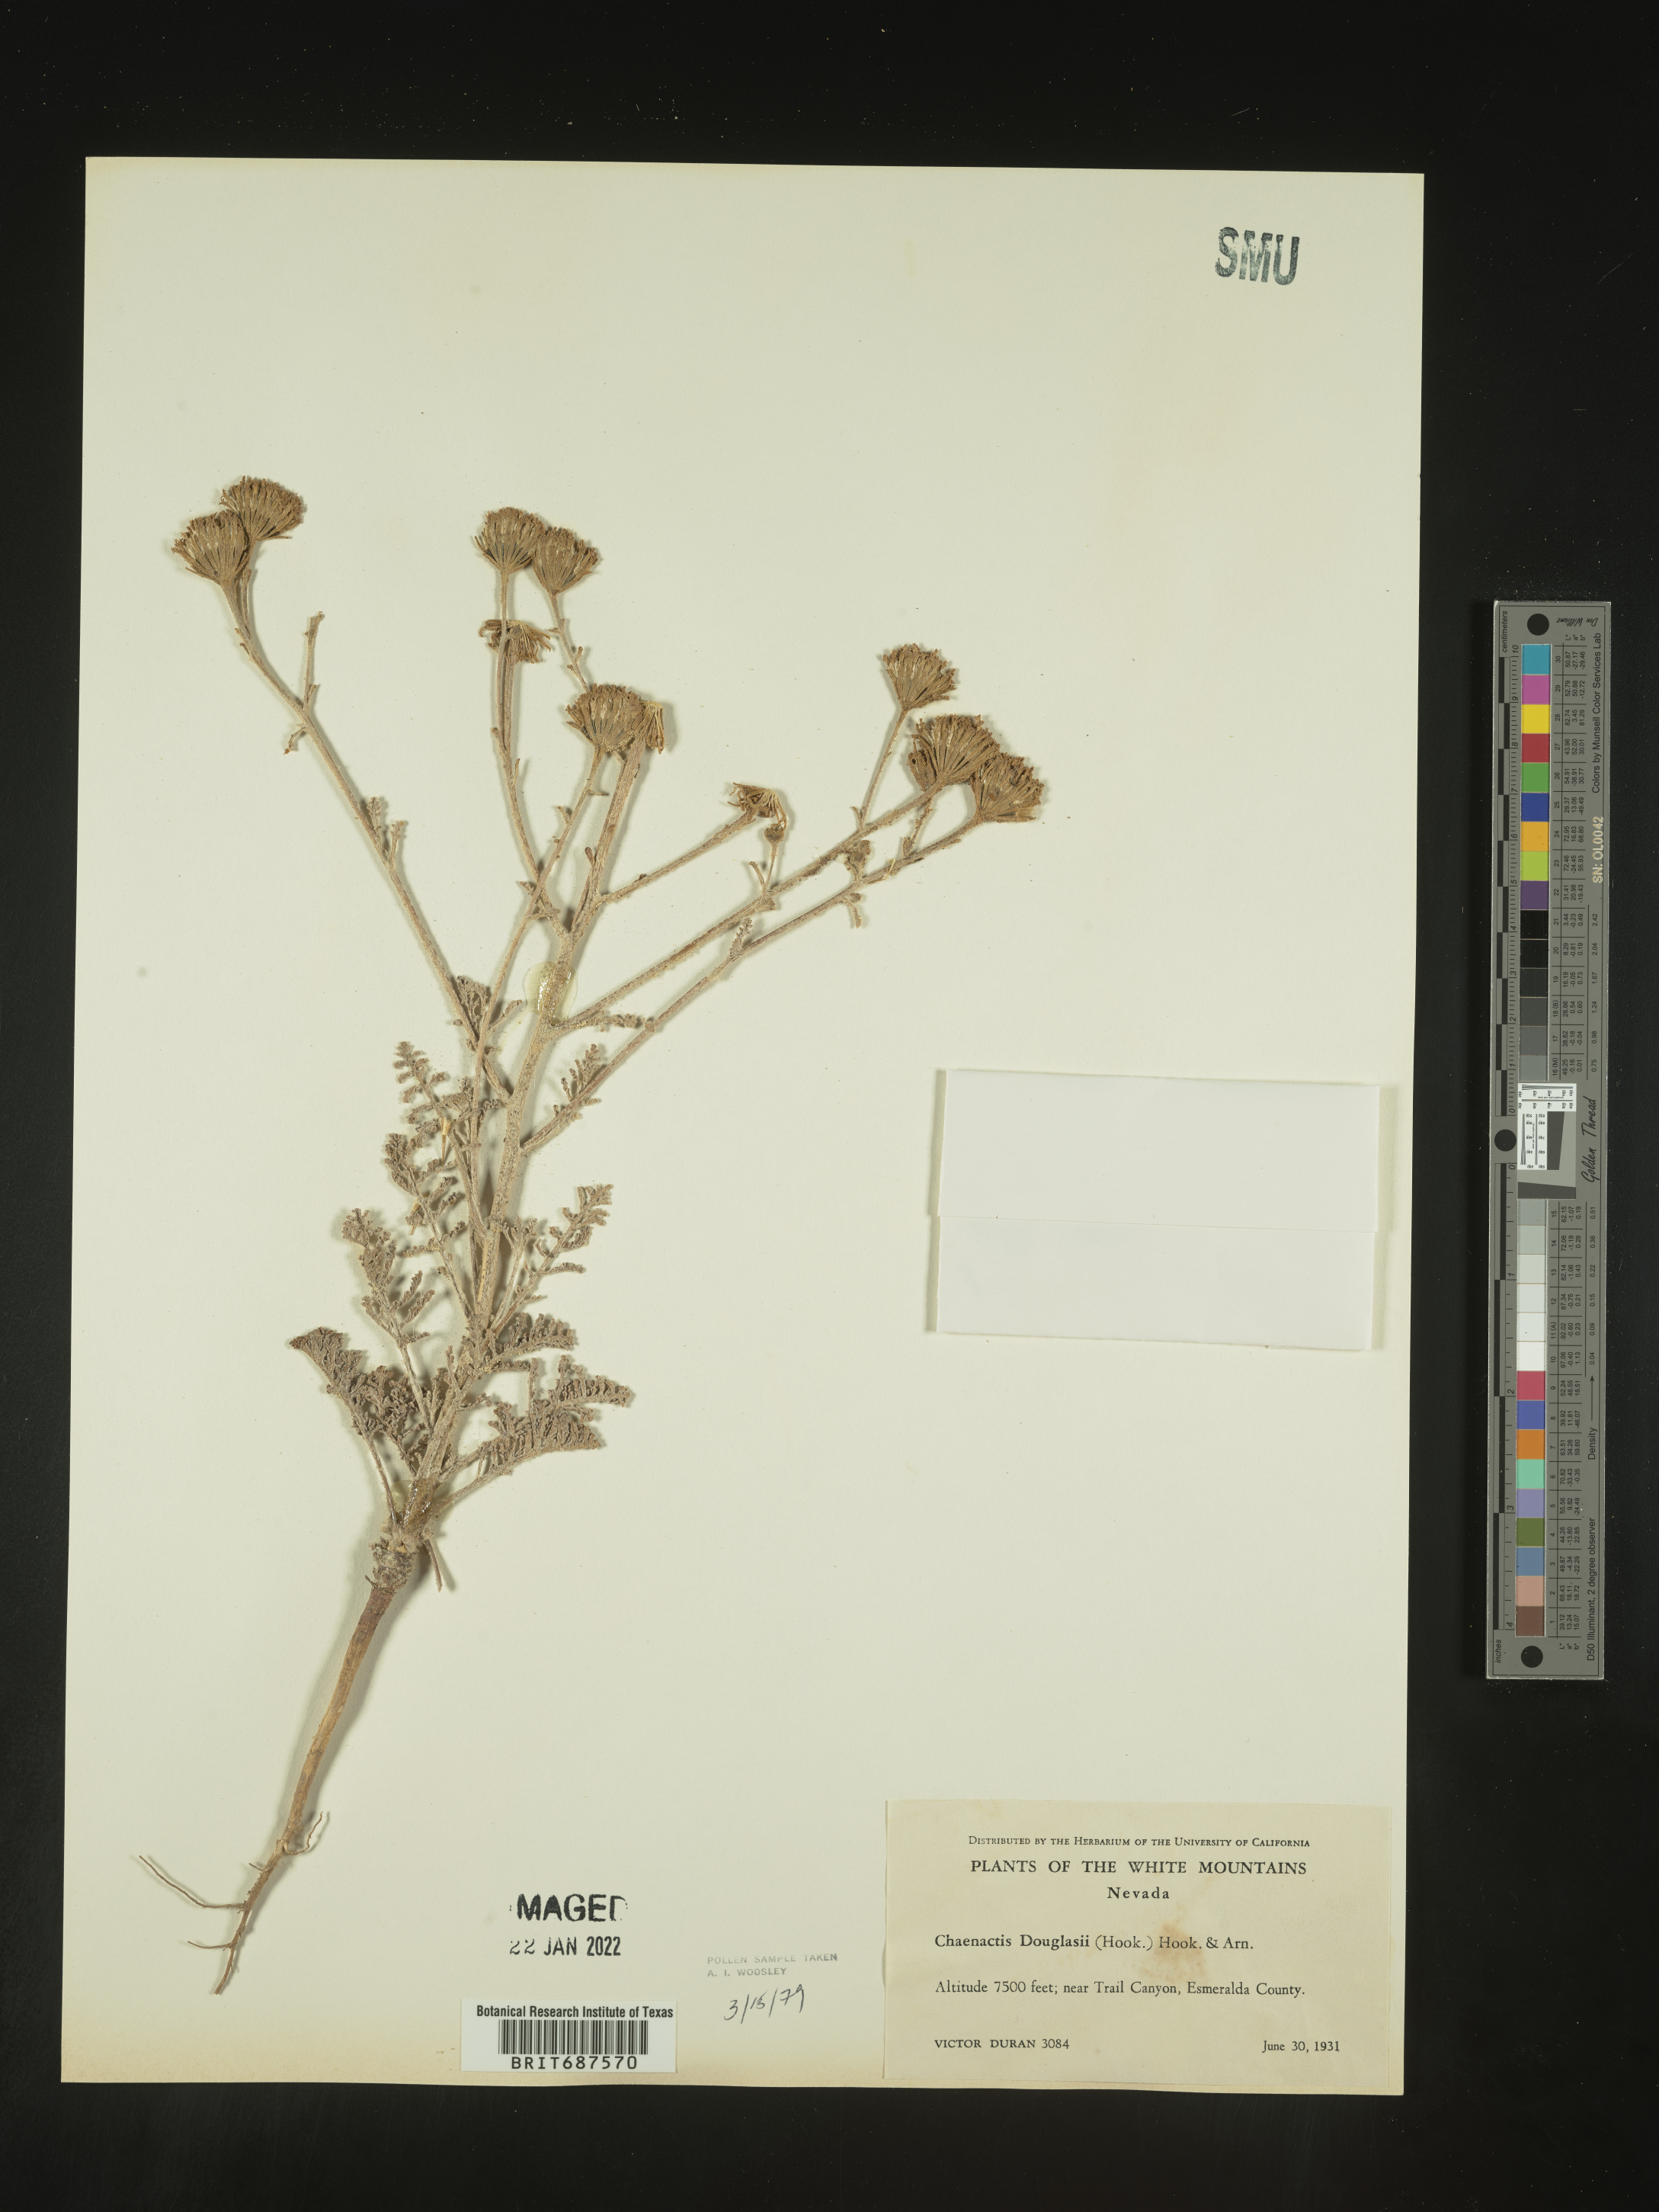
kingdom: Plantae
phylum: Tracheophyta
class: Magnoliopsida
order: Asterales
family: Asteraceae
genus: Chaenactis
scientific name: Chaenactis douglasii
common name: Hoary pincushion
